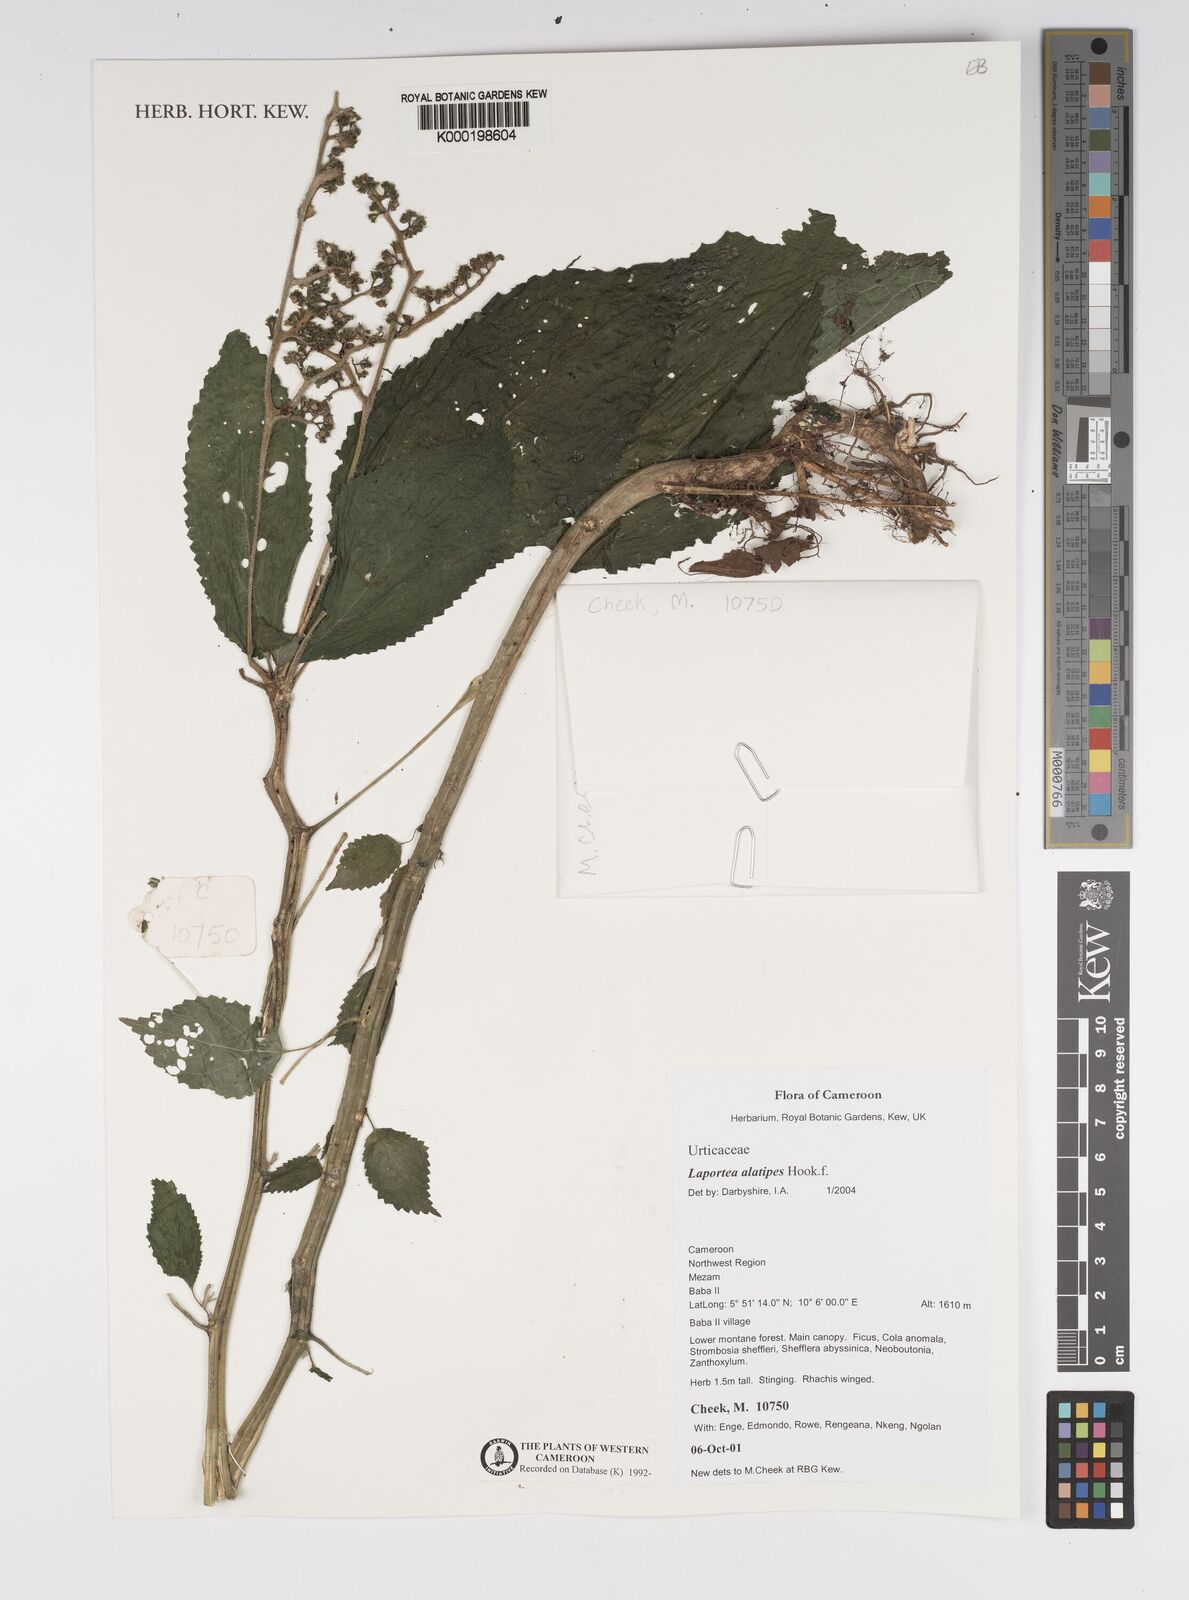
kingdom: Plantae
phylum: Tracheophyta
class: Magnoliopsida
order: Rosales
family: Urticaceae
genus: Laportea
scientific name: Laportea alatipes
